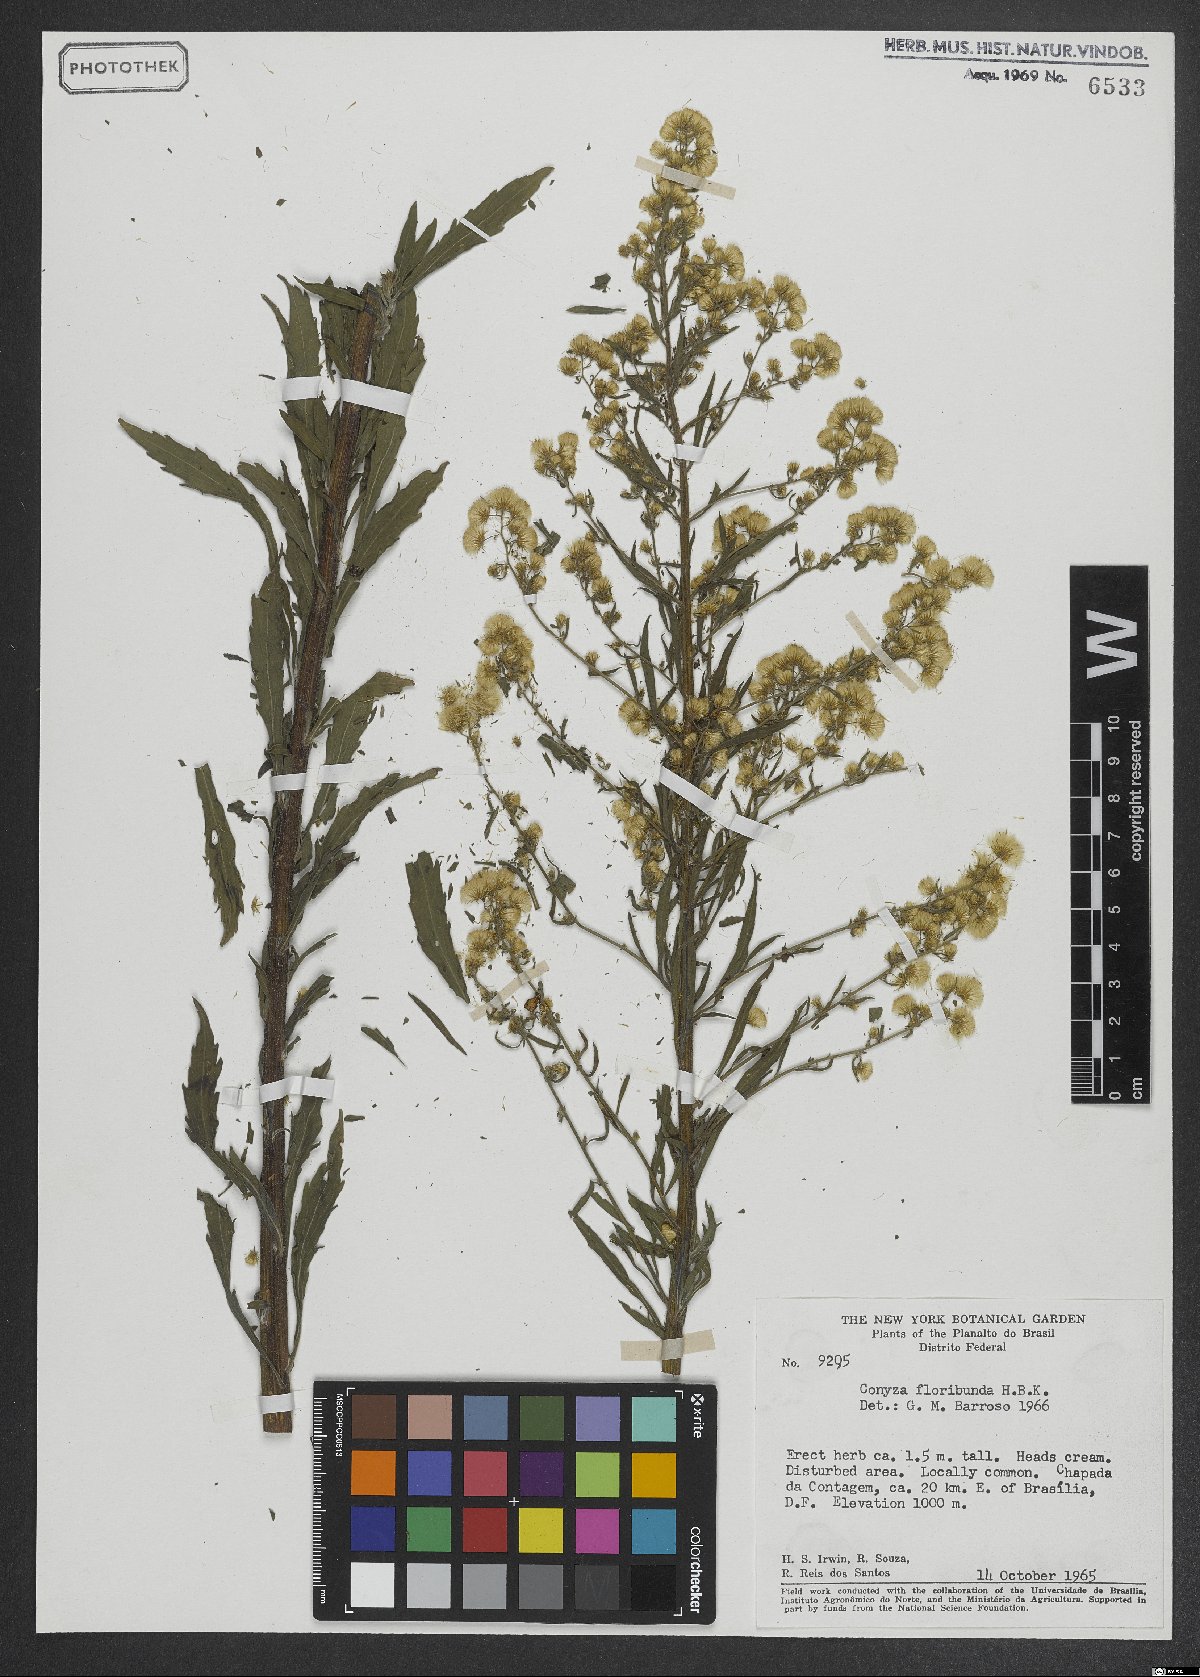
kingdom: Plantae
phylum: Tracheophyta
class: Magnoliopsida
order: Asterales
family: Asteraceae
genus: Erigeron
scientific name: Erigeron floribundus
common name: Bilbao fleabane
